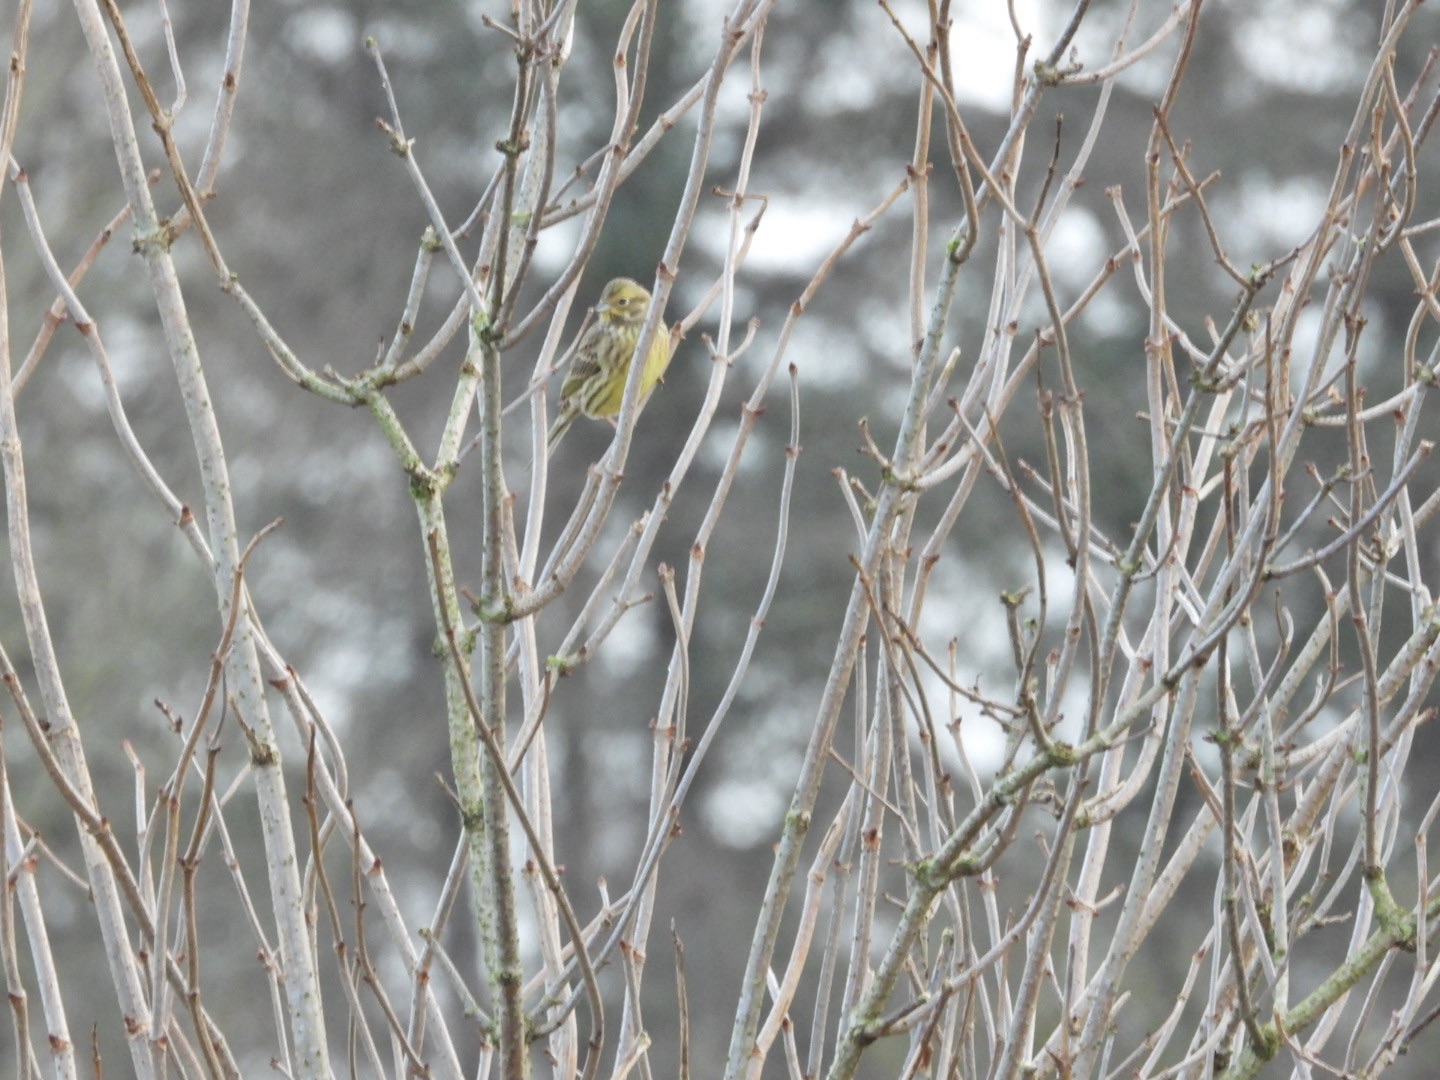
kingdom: Animalia
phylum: Chordata
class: Aves
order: Passeriformes
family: Emberizidae
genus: Emberiza
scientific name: Emberiza citrinella
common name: Gulspurv
